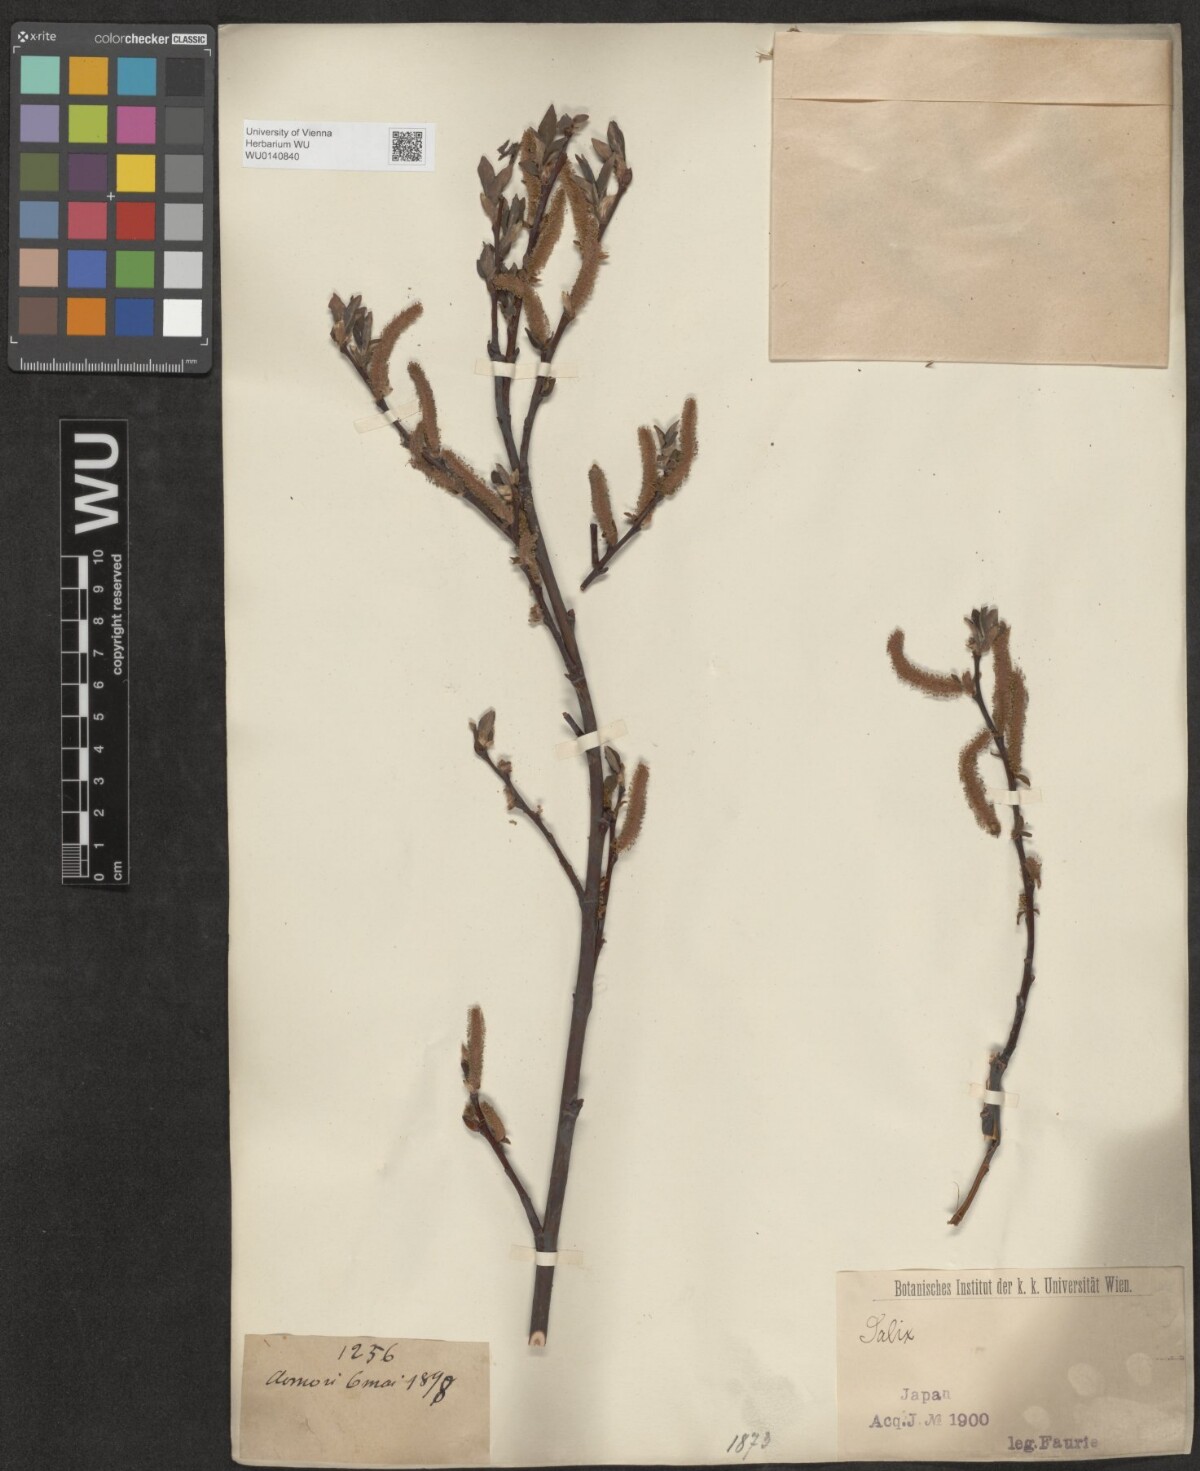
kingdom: Plantae
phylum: Tracheophyta
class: Magnoliopsida
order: Malpighiales
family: Salicaceae
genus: Salix
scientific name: Salix
